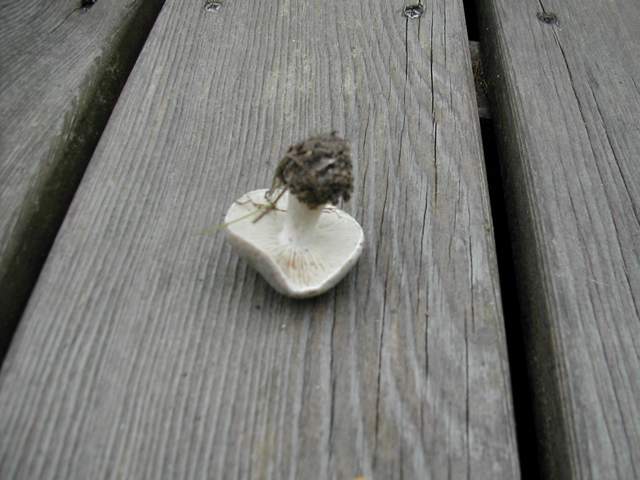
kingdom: Fungi
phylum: Basidiomycota
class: Agaricomycetes
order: Agaricales
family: Tricholomataceae
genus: Melanoleuca
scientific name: Melanoleuca
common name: munkehat
